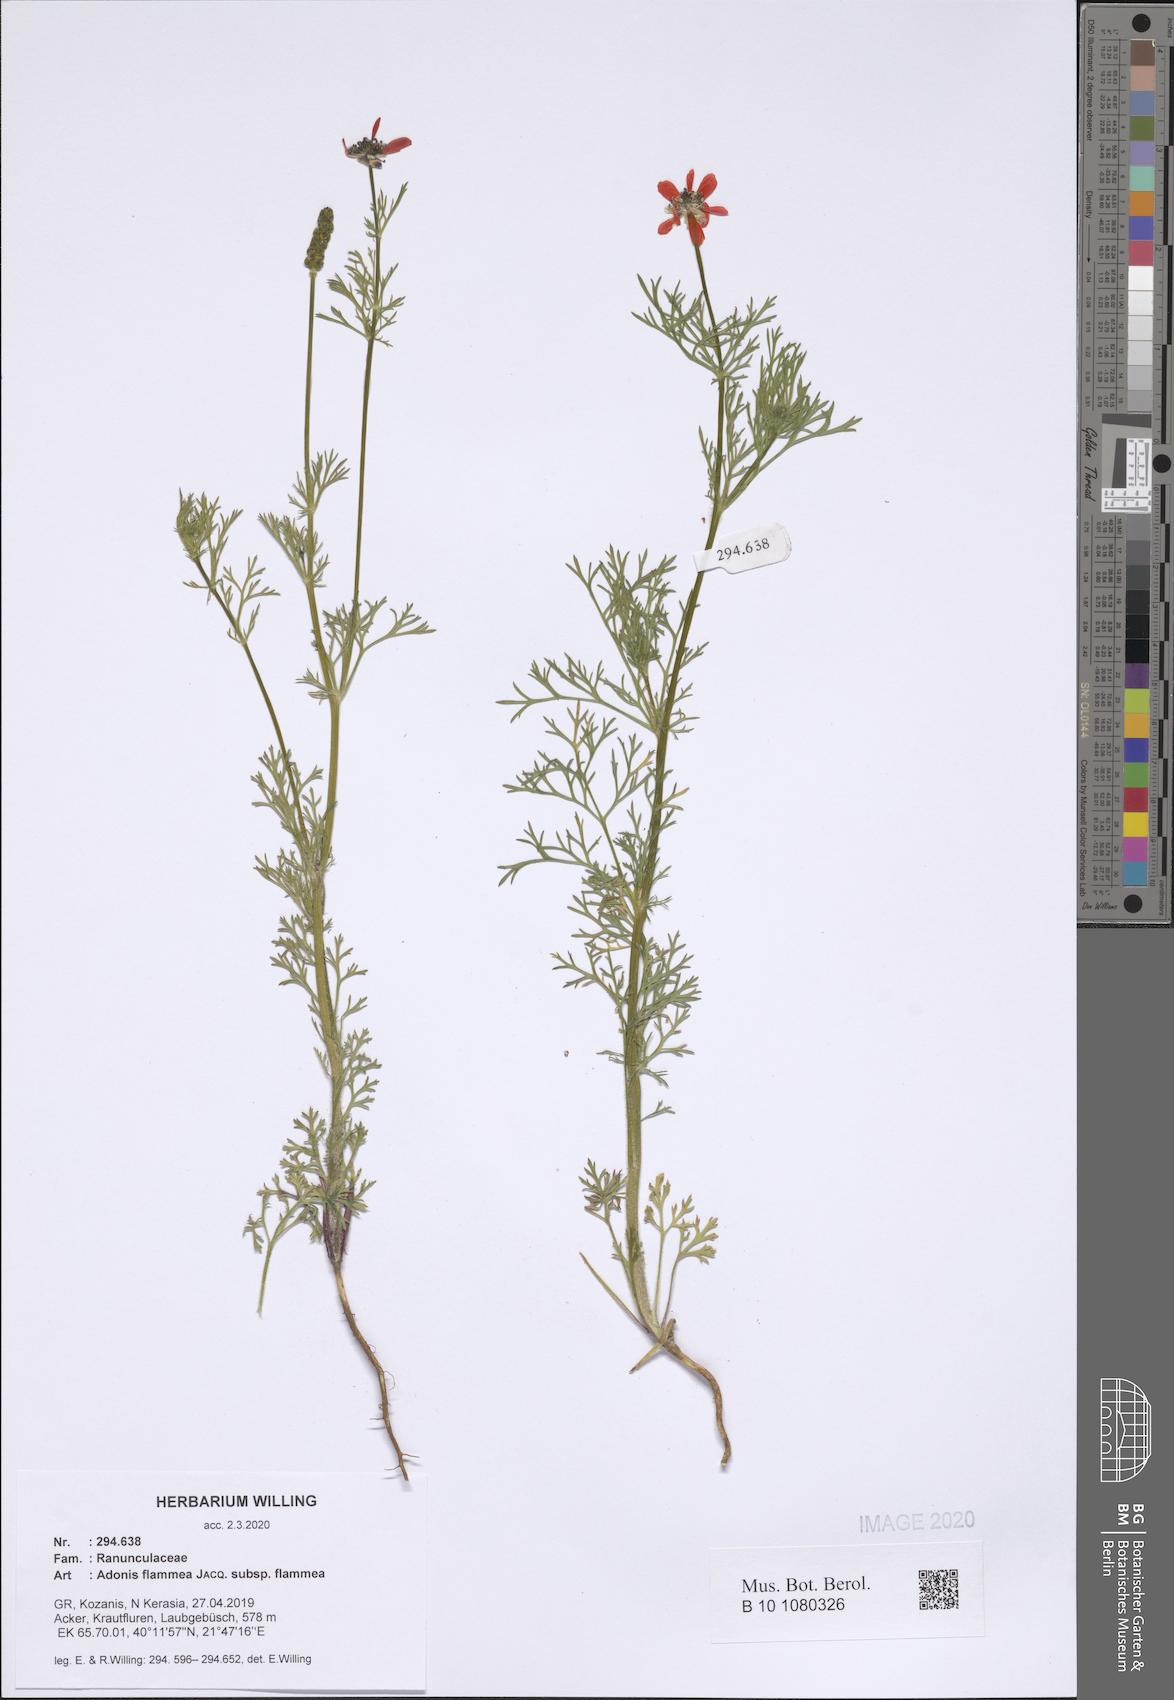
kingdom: Plantae
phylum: Tracheophyta
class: Magnoliopsida
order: Ranunculales
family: Ranunculaceae
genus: Adonis
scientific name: Adonis flammea
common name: Large pheasant's-eye
